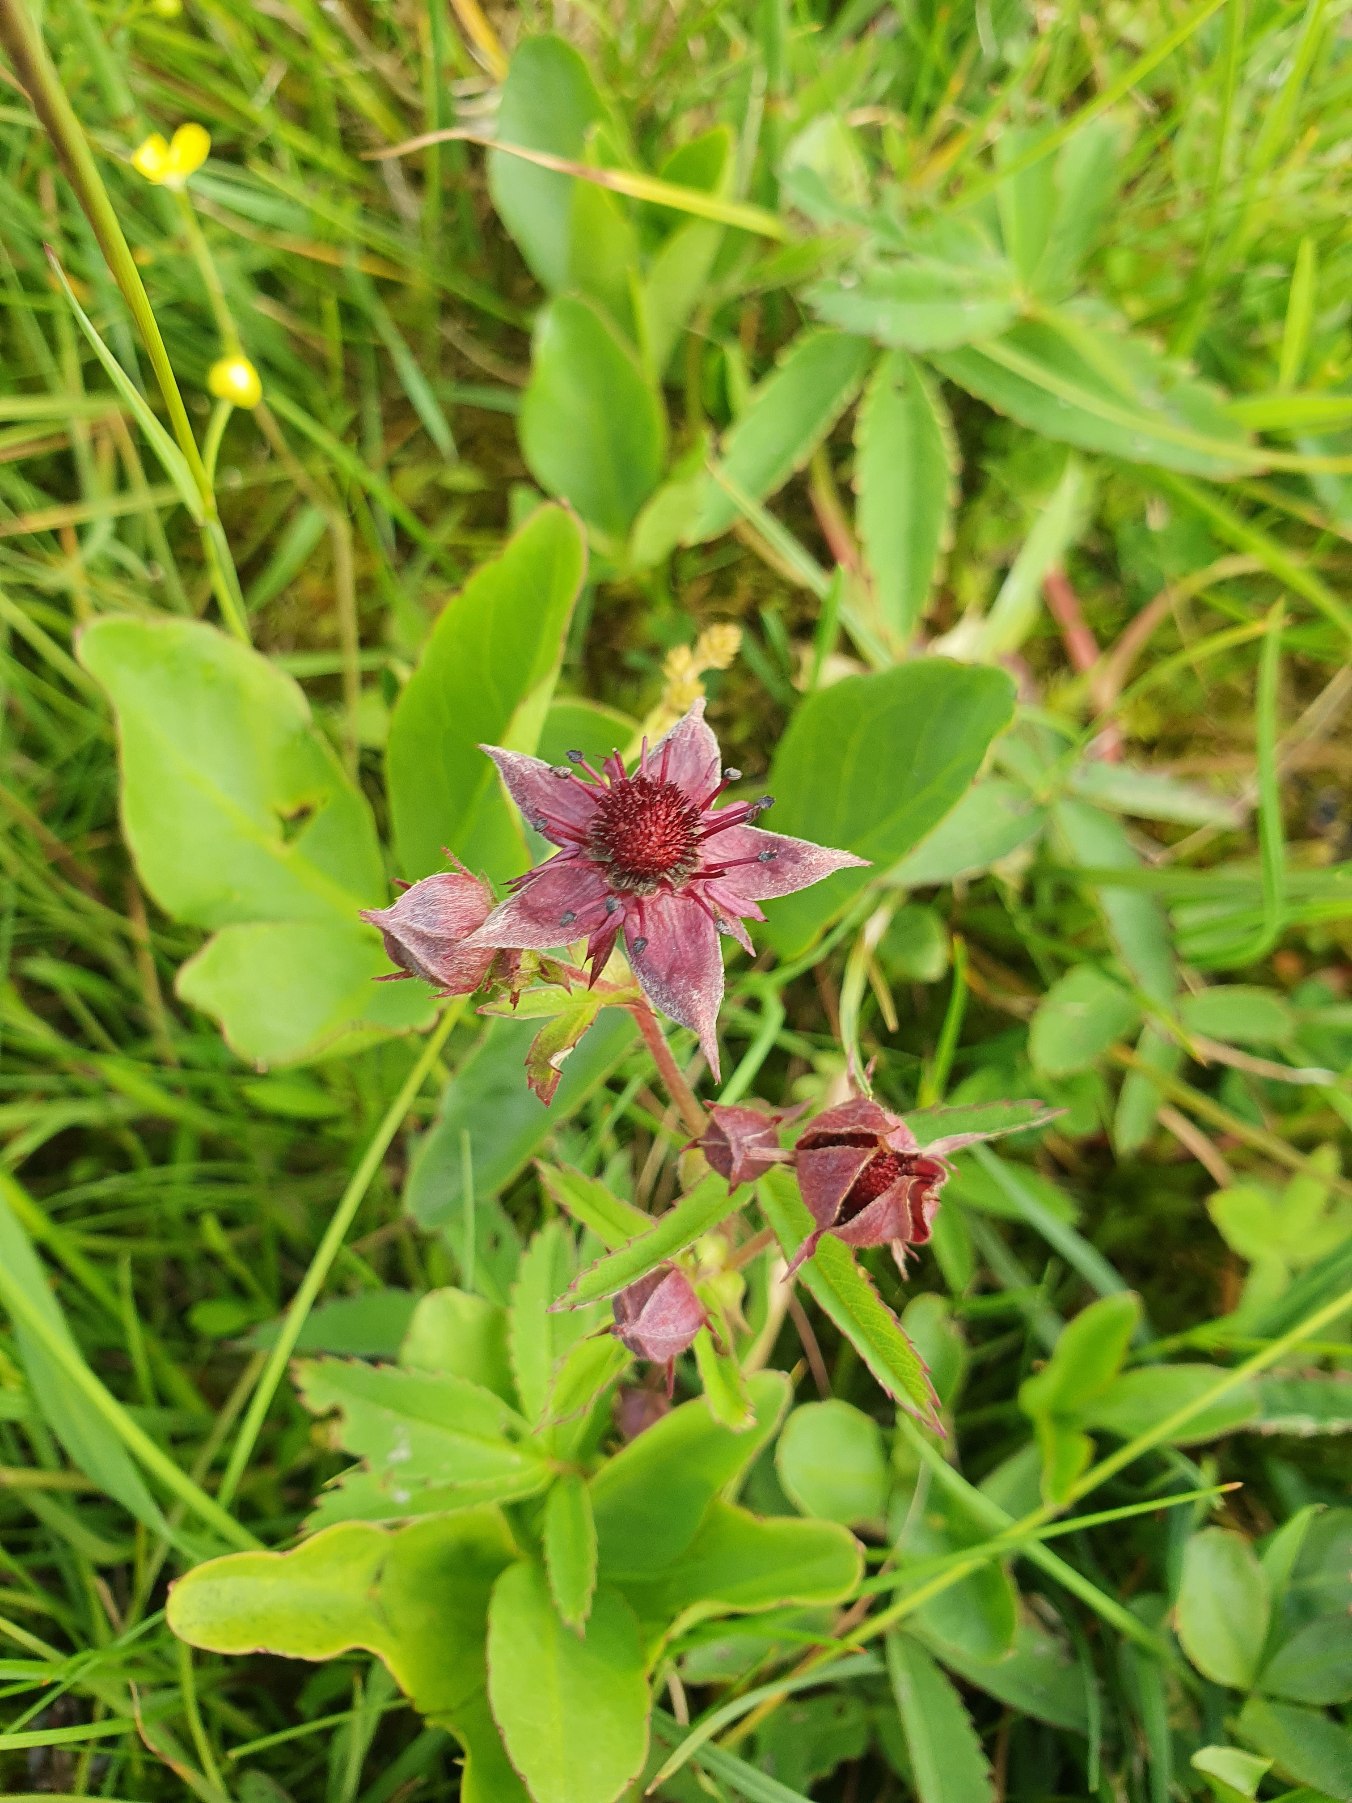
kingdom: Plantae
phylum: Tracheophyta
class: Magnoliopsida
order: Rosales
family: Rosaceae
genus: Comarum
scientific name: Comarum palustre
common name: Kragefod
